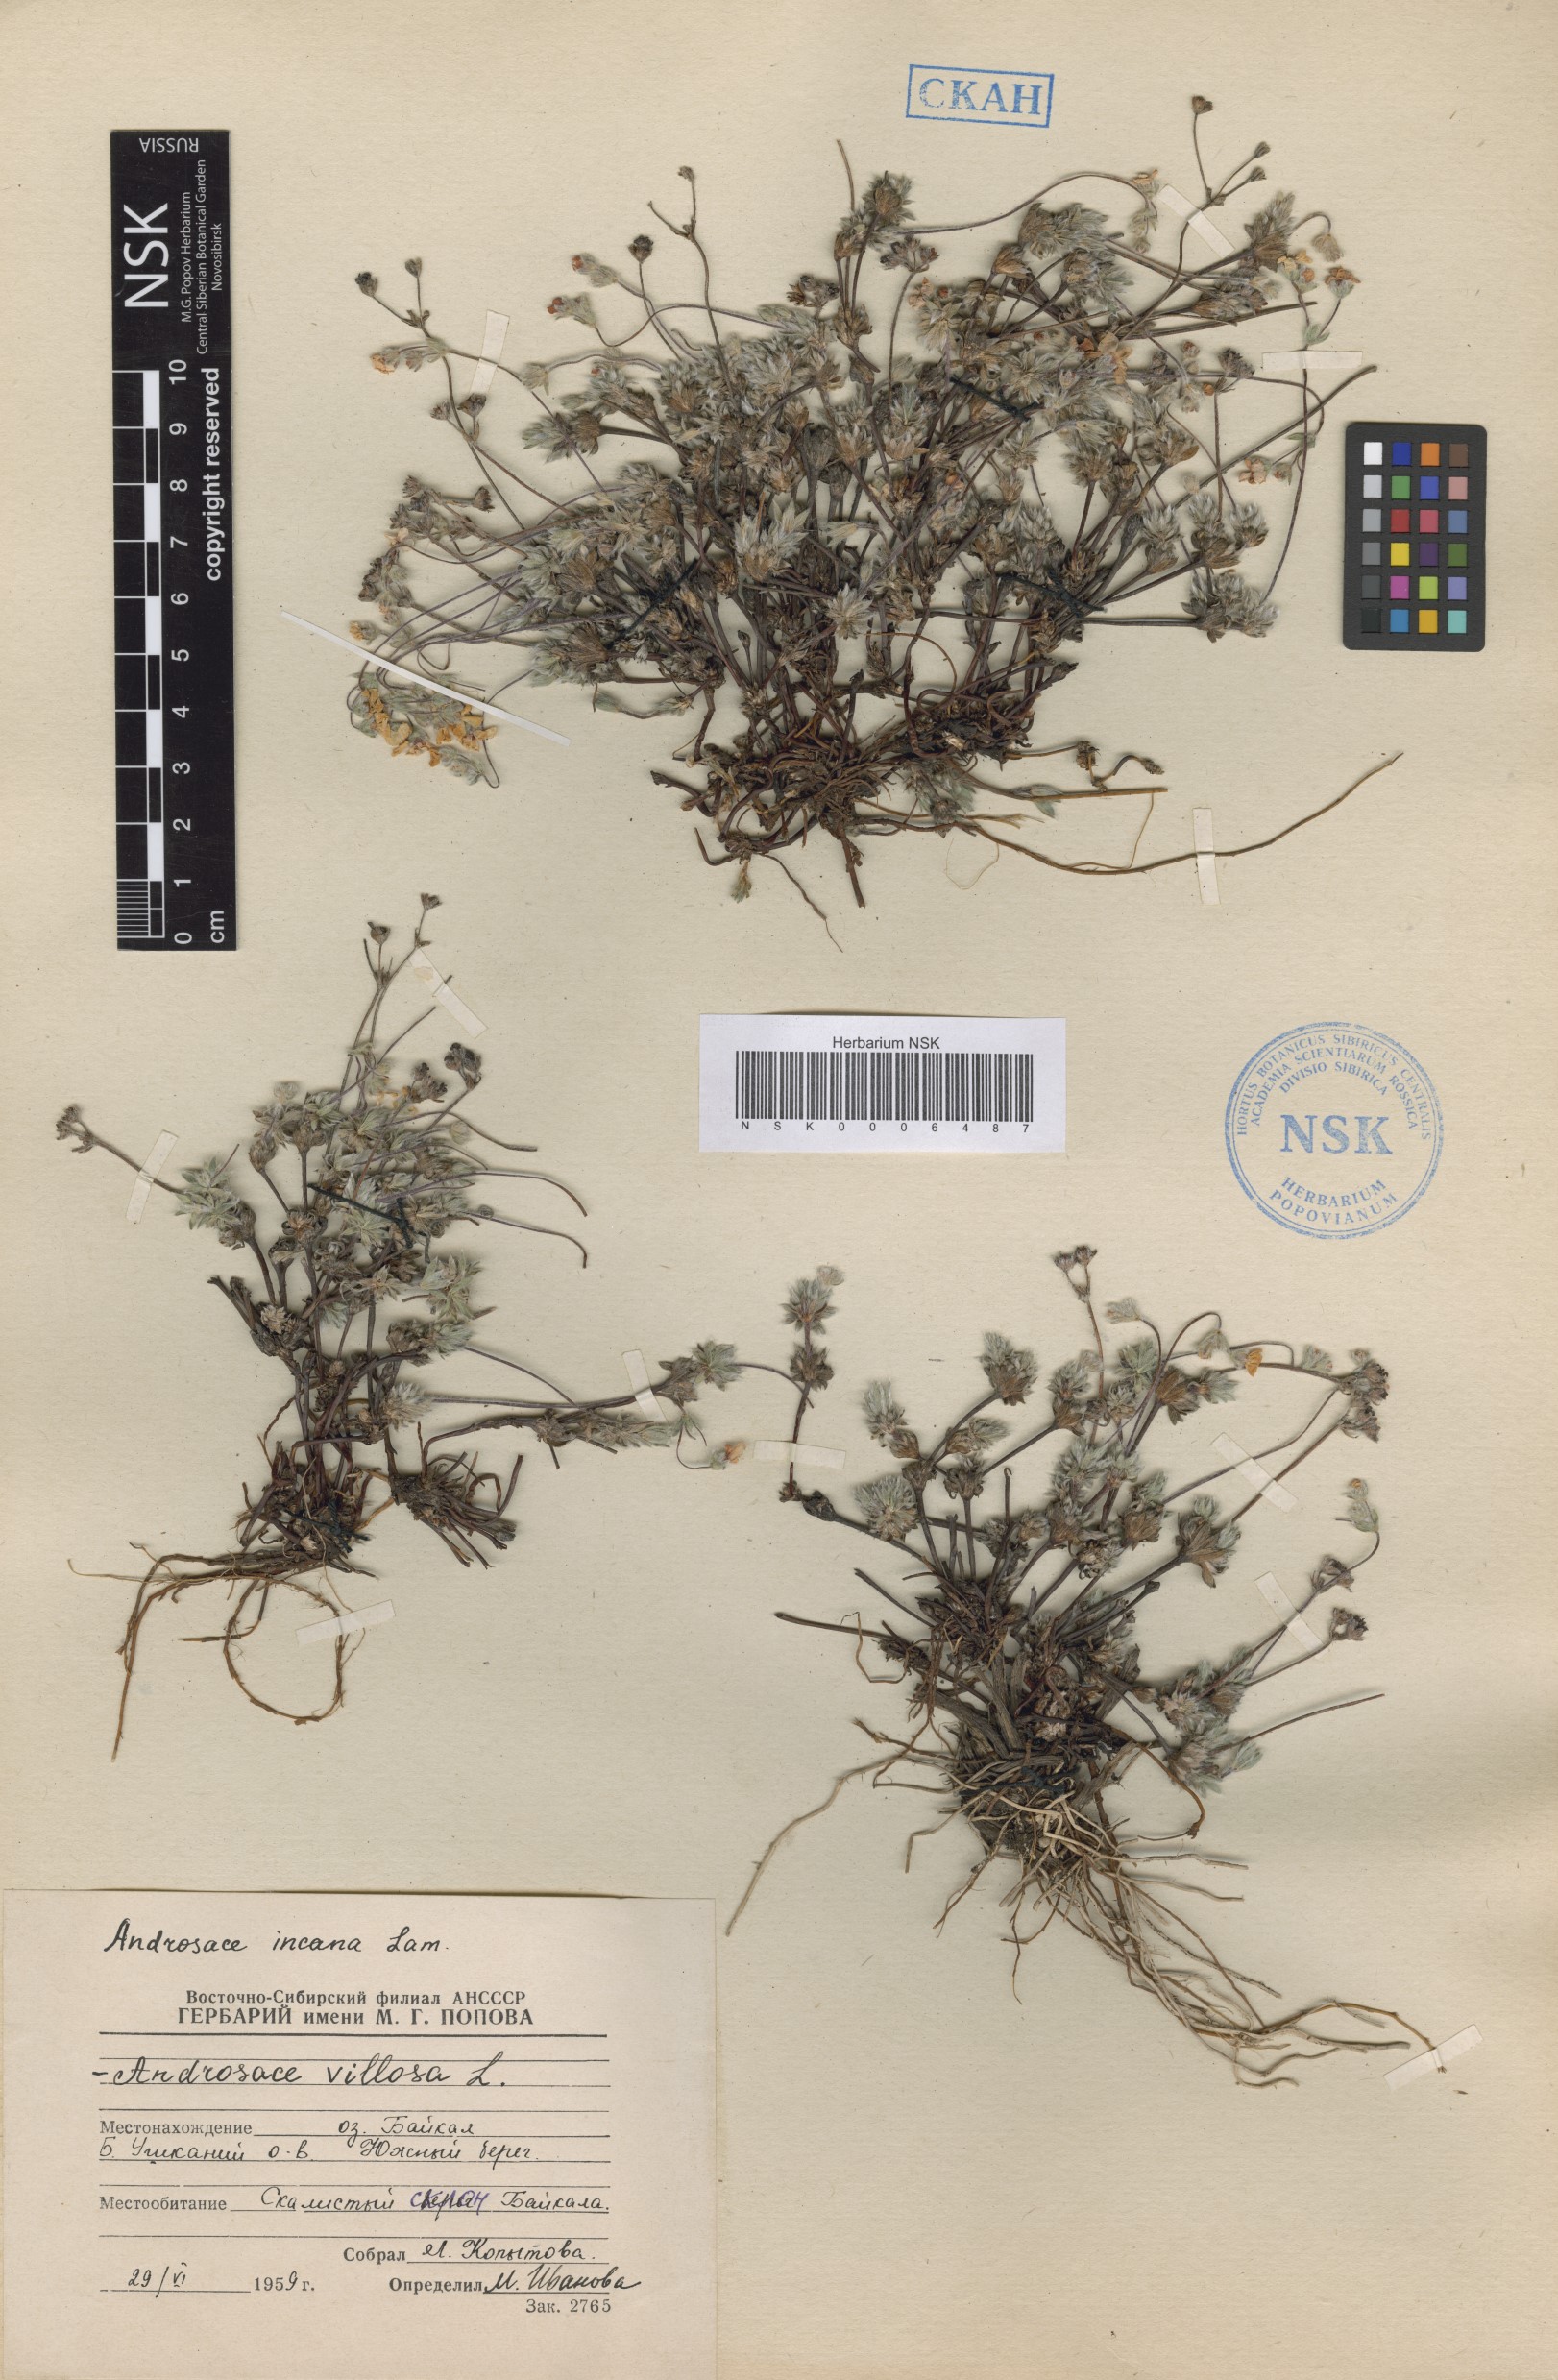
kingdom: Plantae
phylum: Tracheophyta
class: Magnoliopsida
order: Ericales
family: Primulaceae
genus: Androsace
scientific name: Androsace incana
